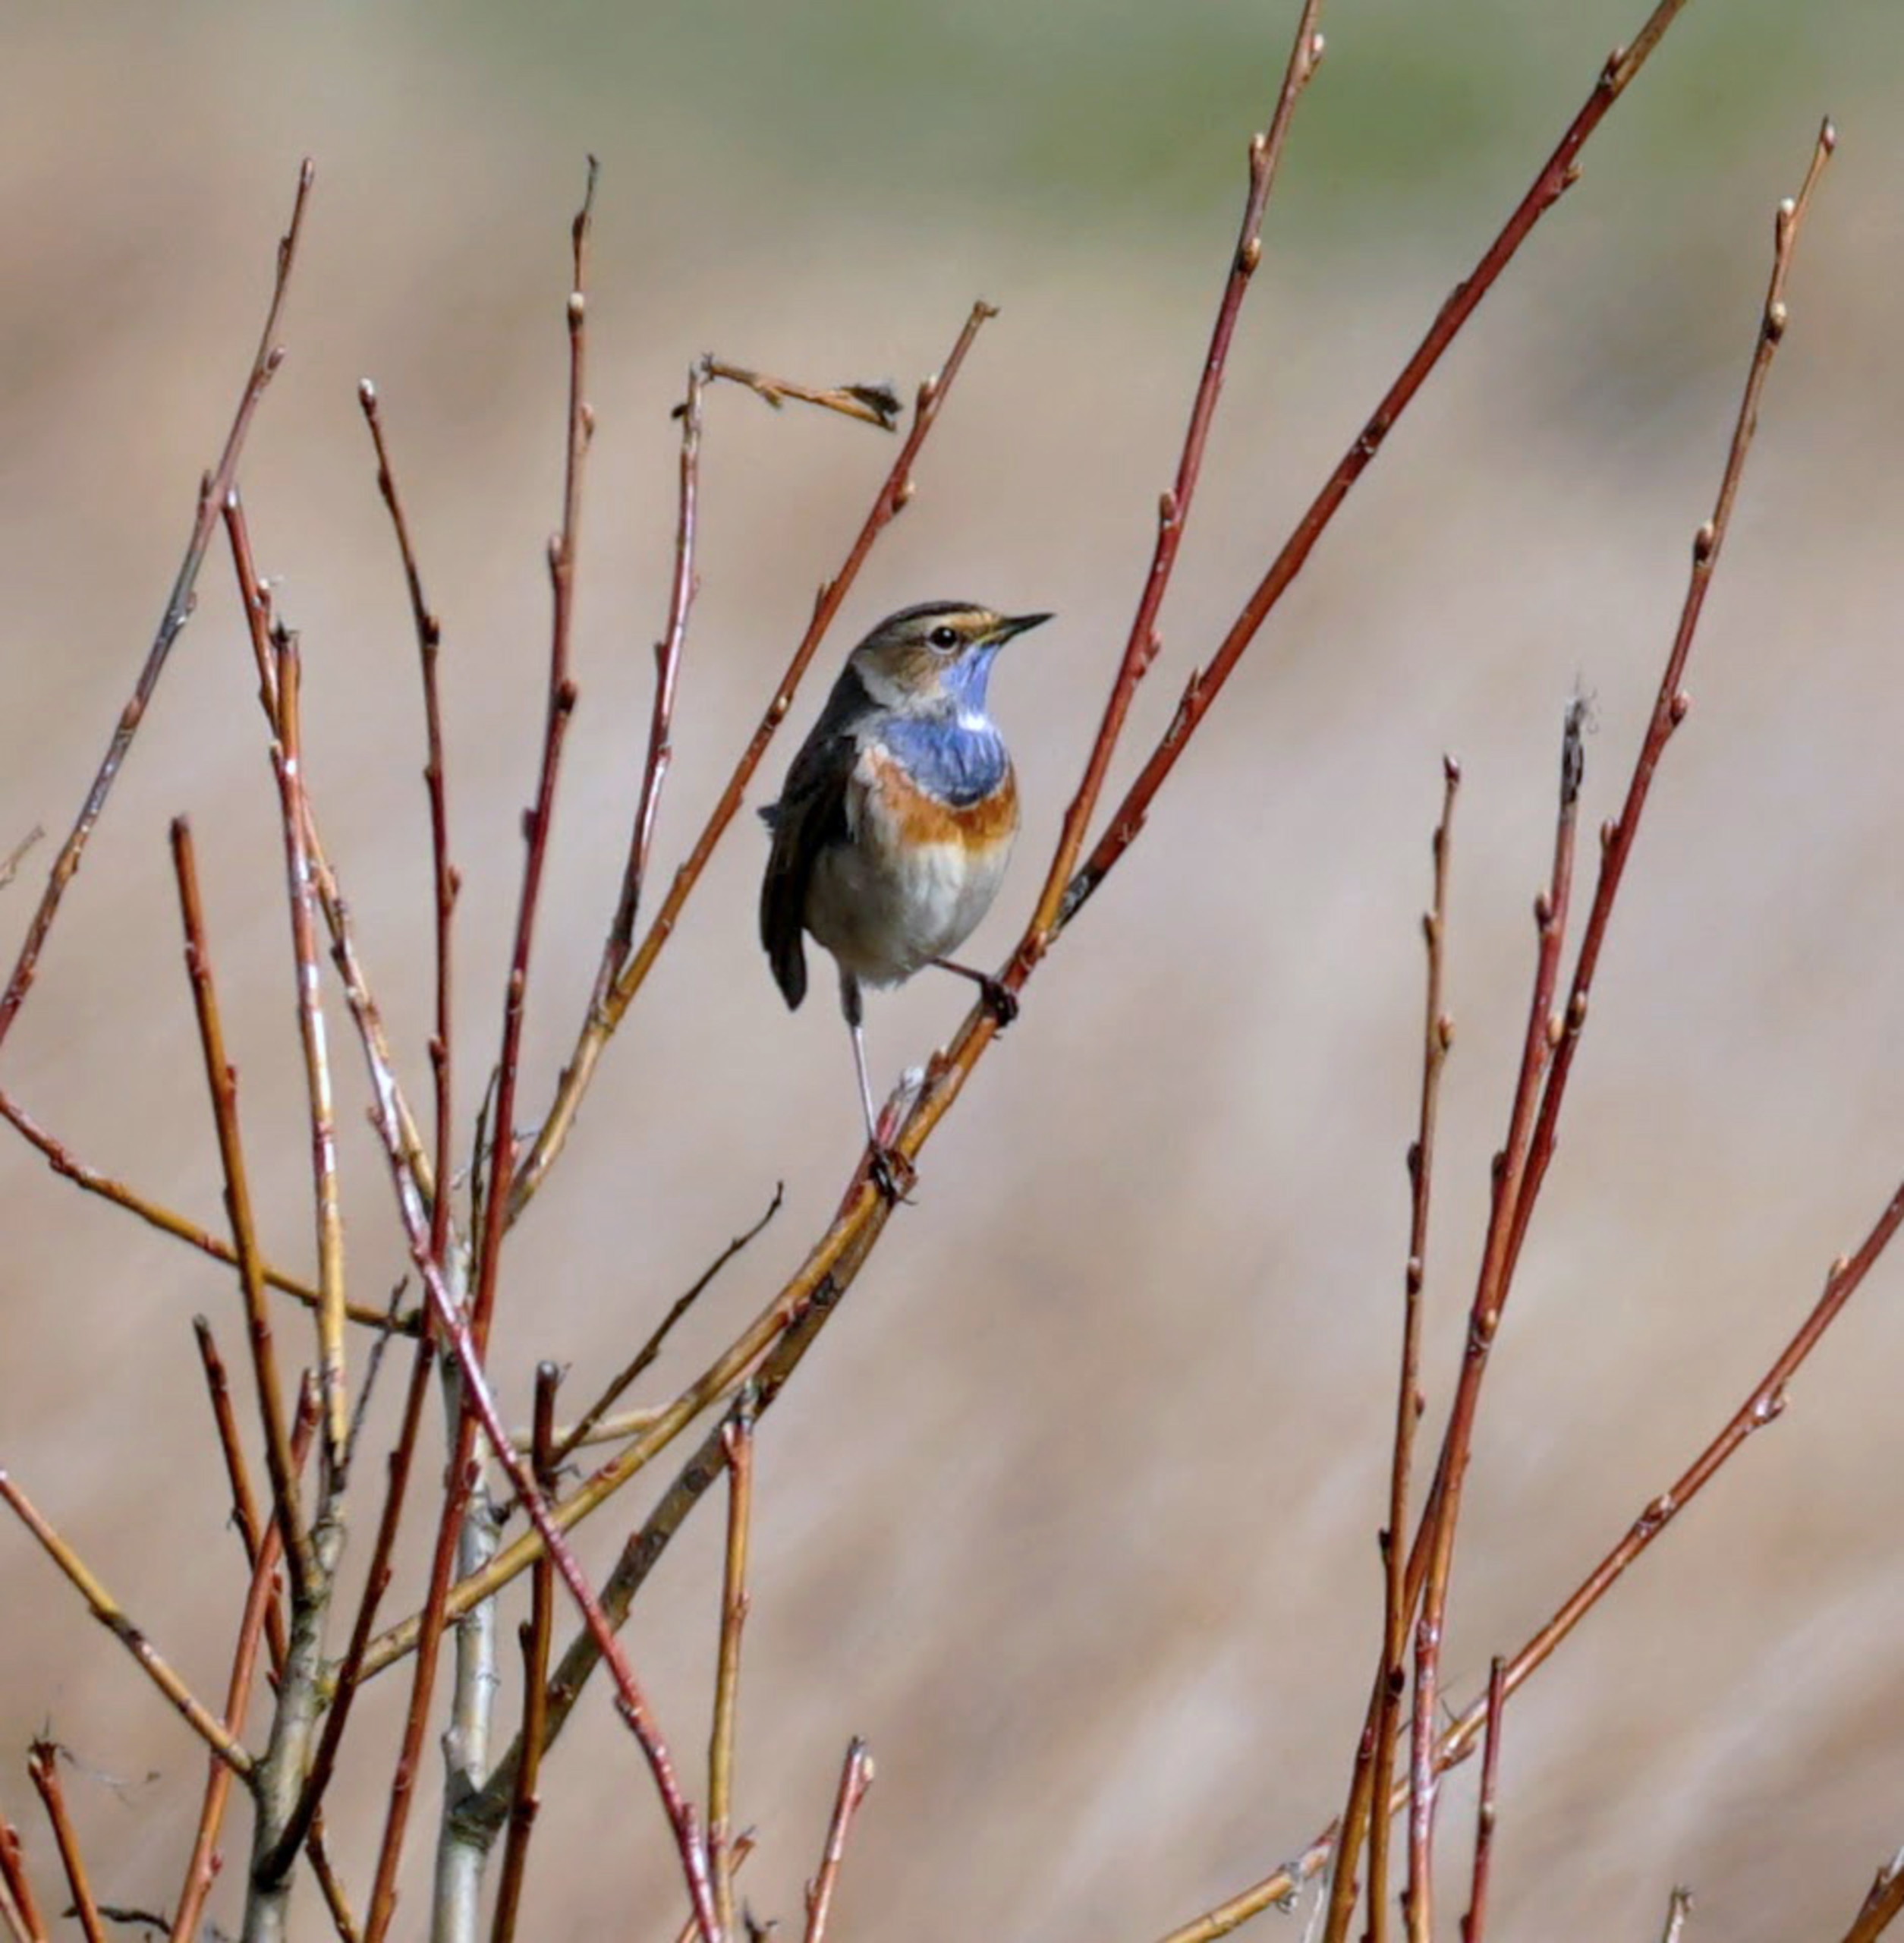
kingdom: Animalia
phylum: Chordata
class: Aves
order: Passeriformes
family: Muscicapidae
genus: Luscinia
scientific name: Luscinia svecica
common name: Blåhals
